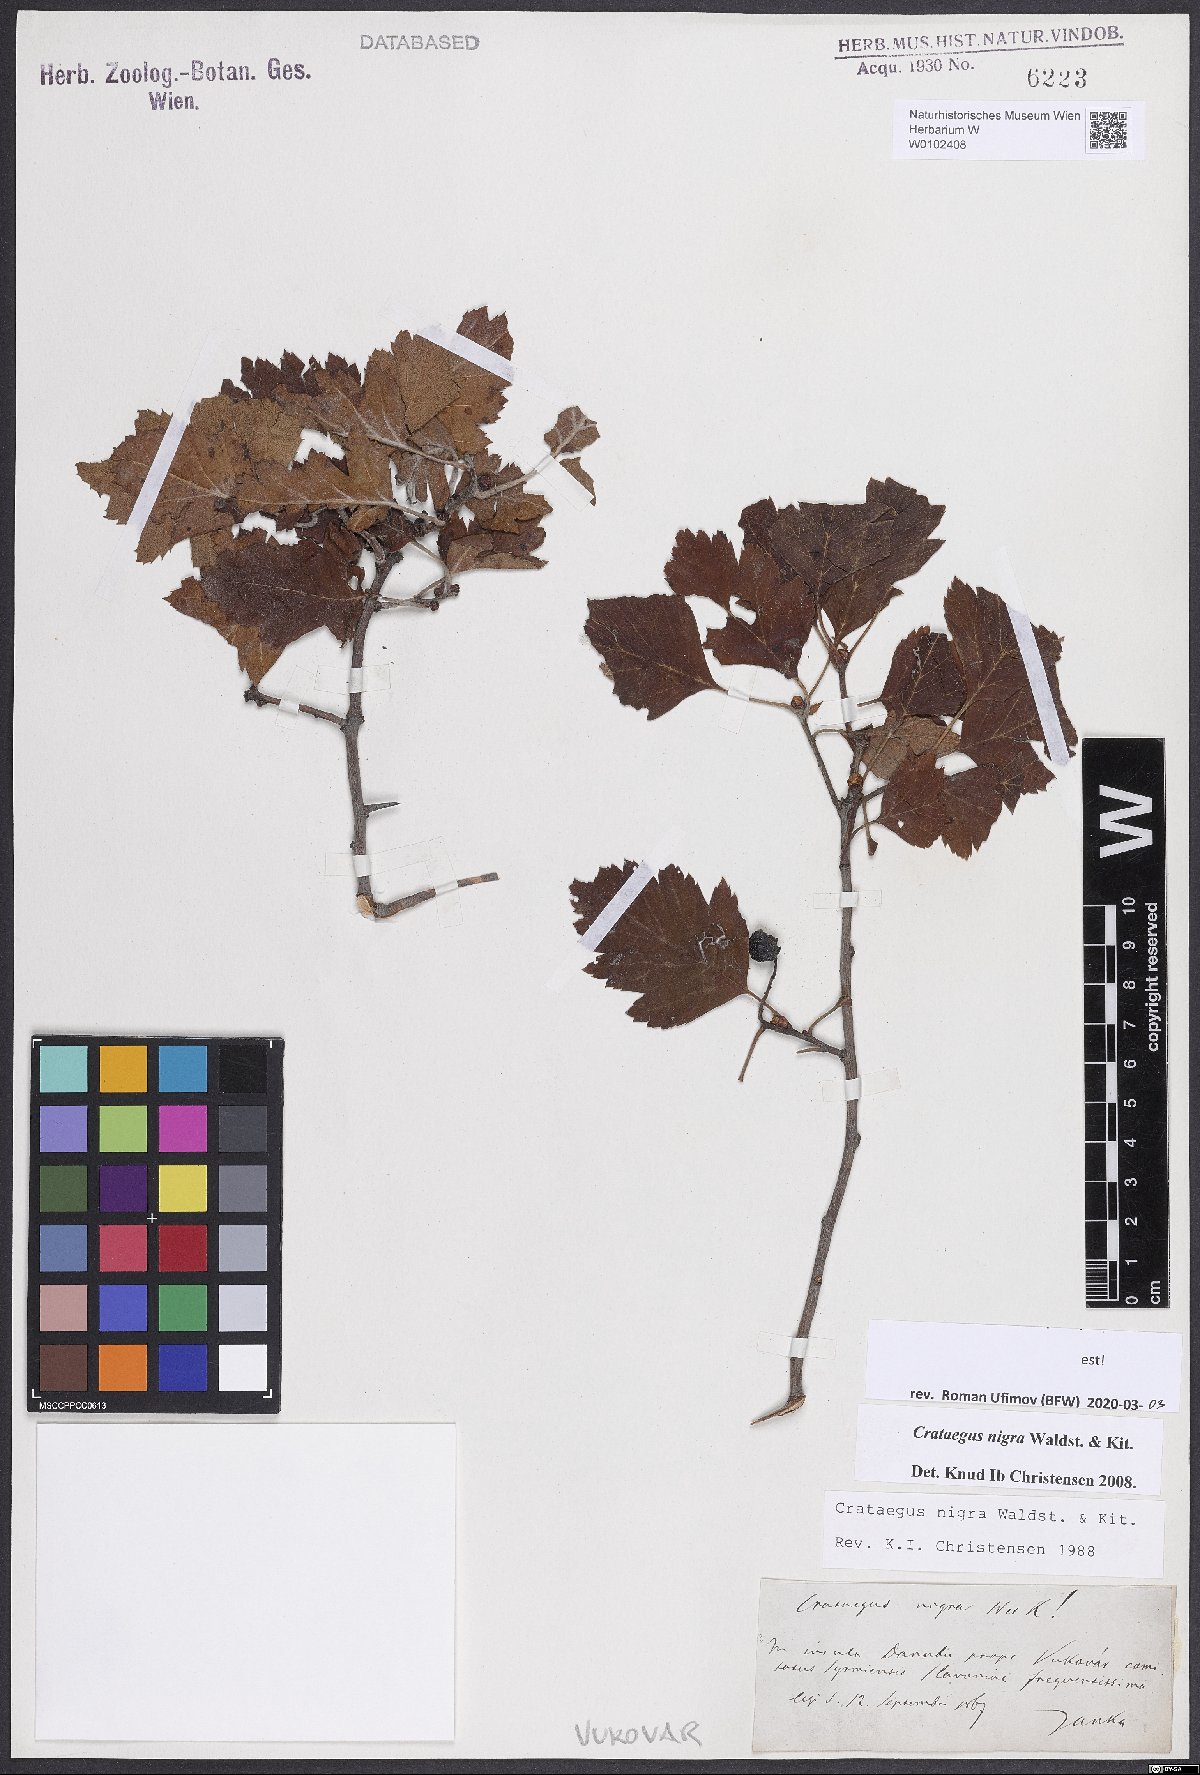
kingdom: Plantae
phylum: Tracheophyta
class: Magnoliopsida
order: Rosales
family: Rosaceae
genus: Crataegus
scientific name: Crataegus nigra
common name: Hungarian thorn
